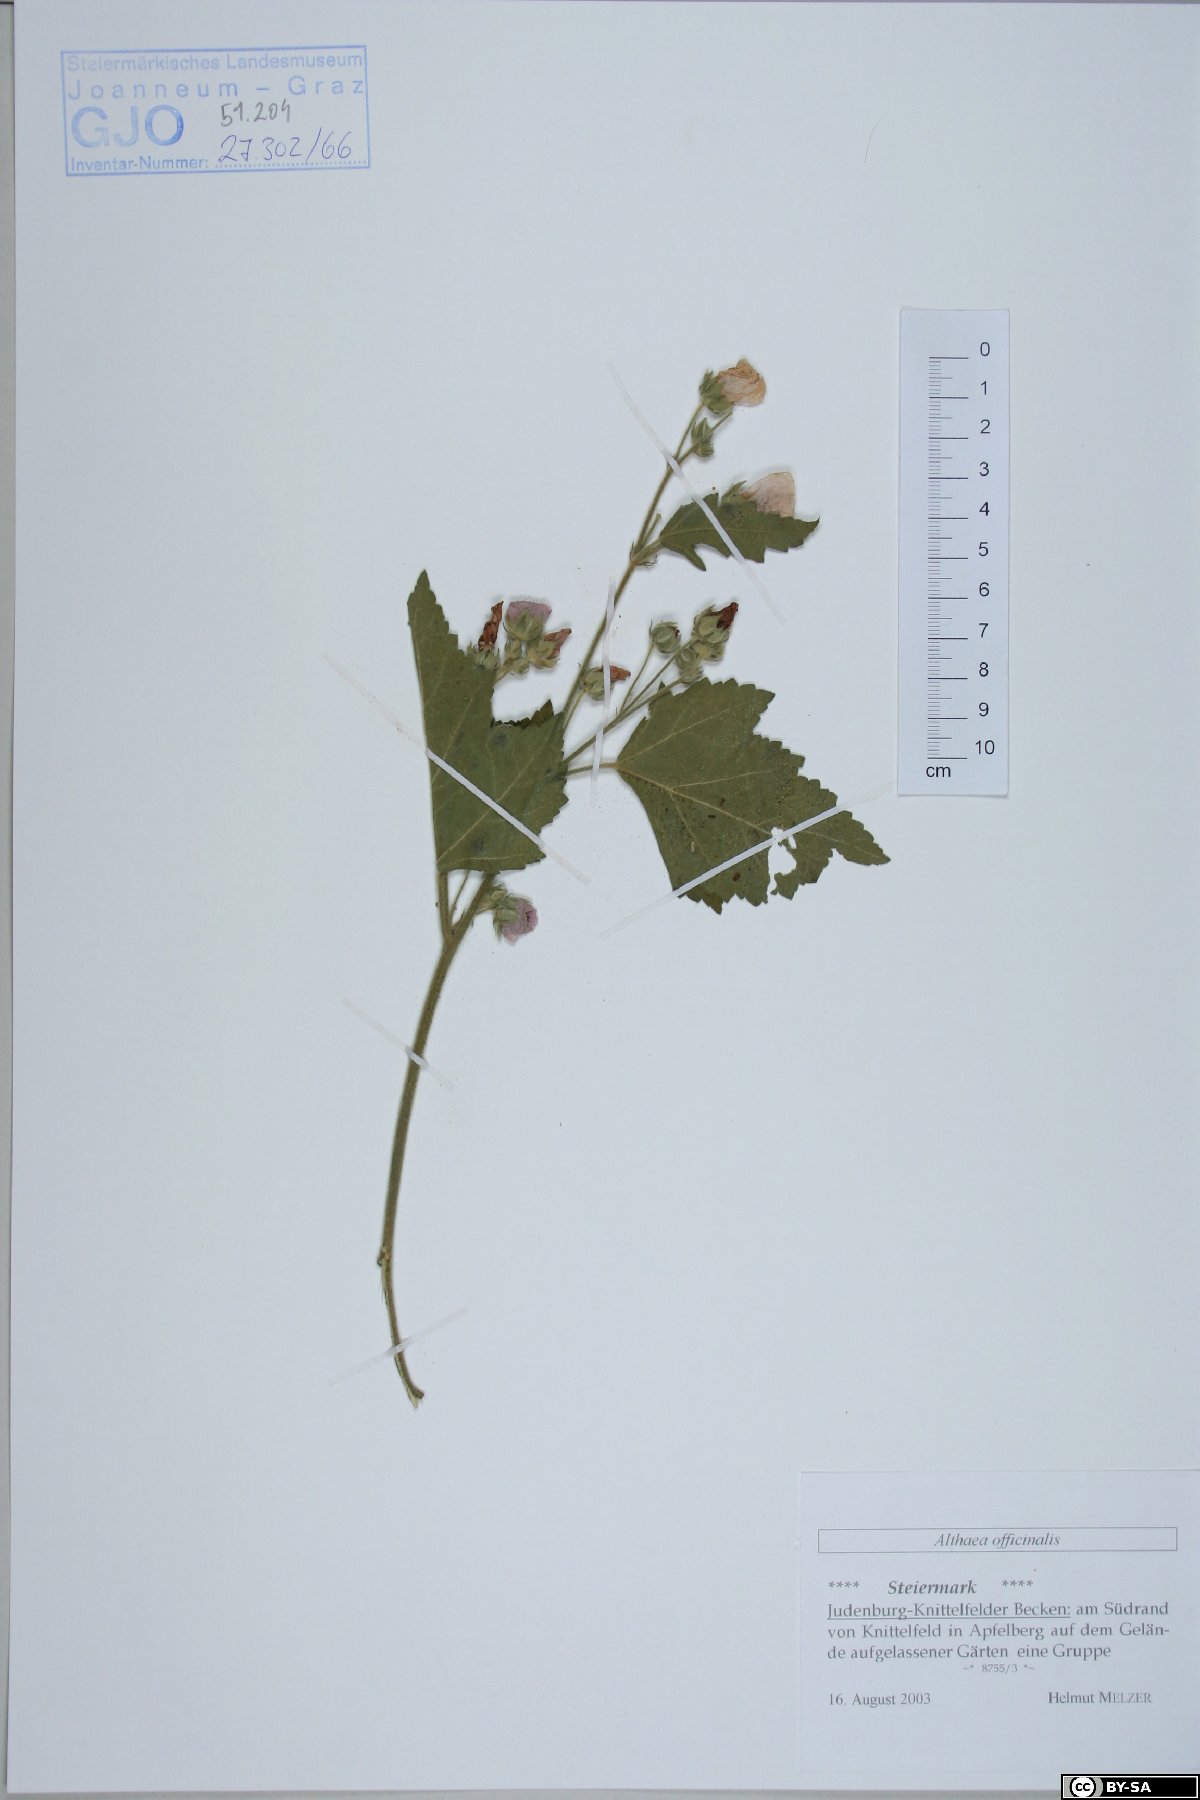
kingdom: Plantae
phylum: Tracheophyta
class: Magnoliopsida
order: Malvales
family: Malvaceae
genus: Althaea
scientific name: Althaea officinalis
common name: Marsh-mallow
